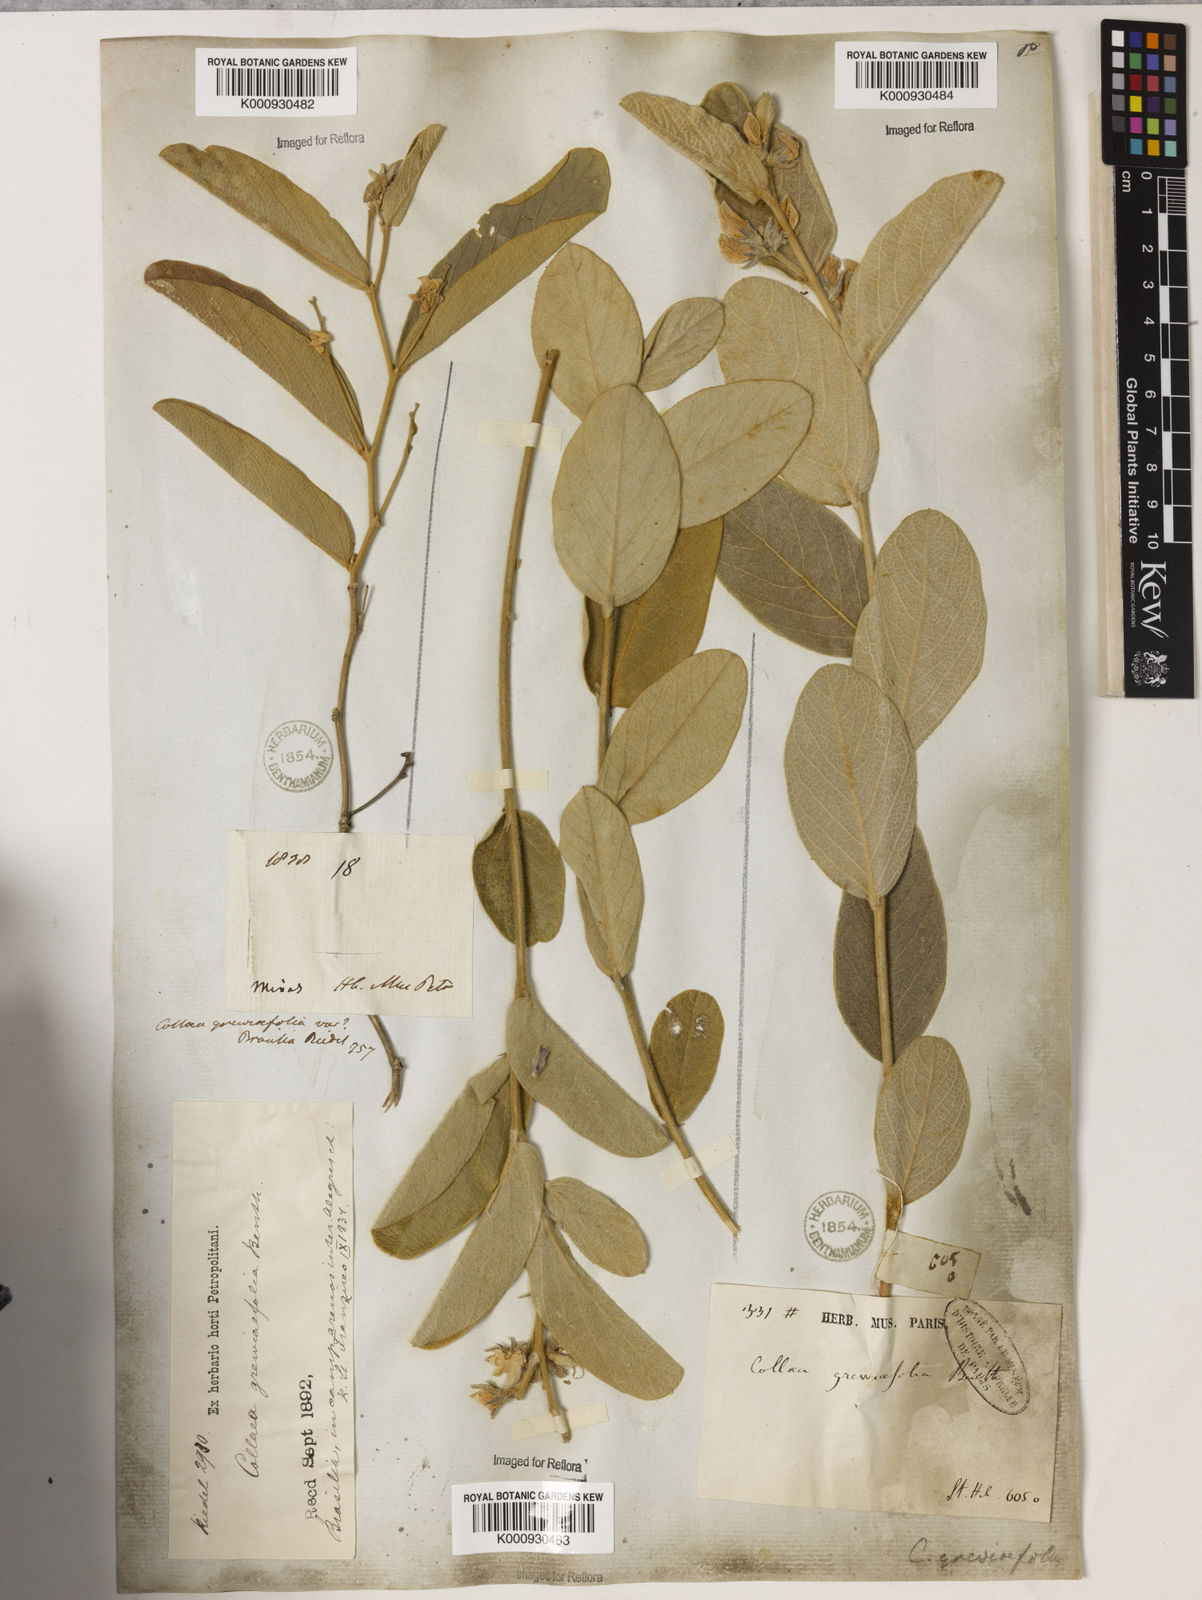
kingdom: Plantae
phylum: Tracheophyta
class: Magnoliopsida
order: Fabales
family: Fabaceae
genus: Galactia
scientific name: Galactia
